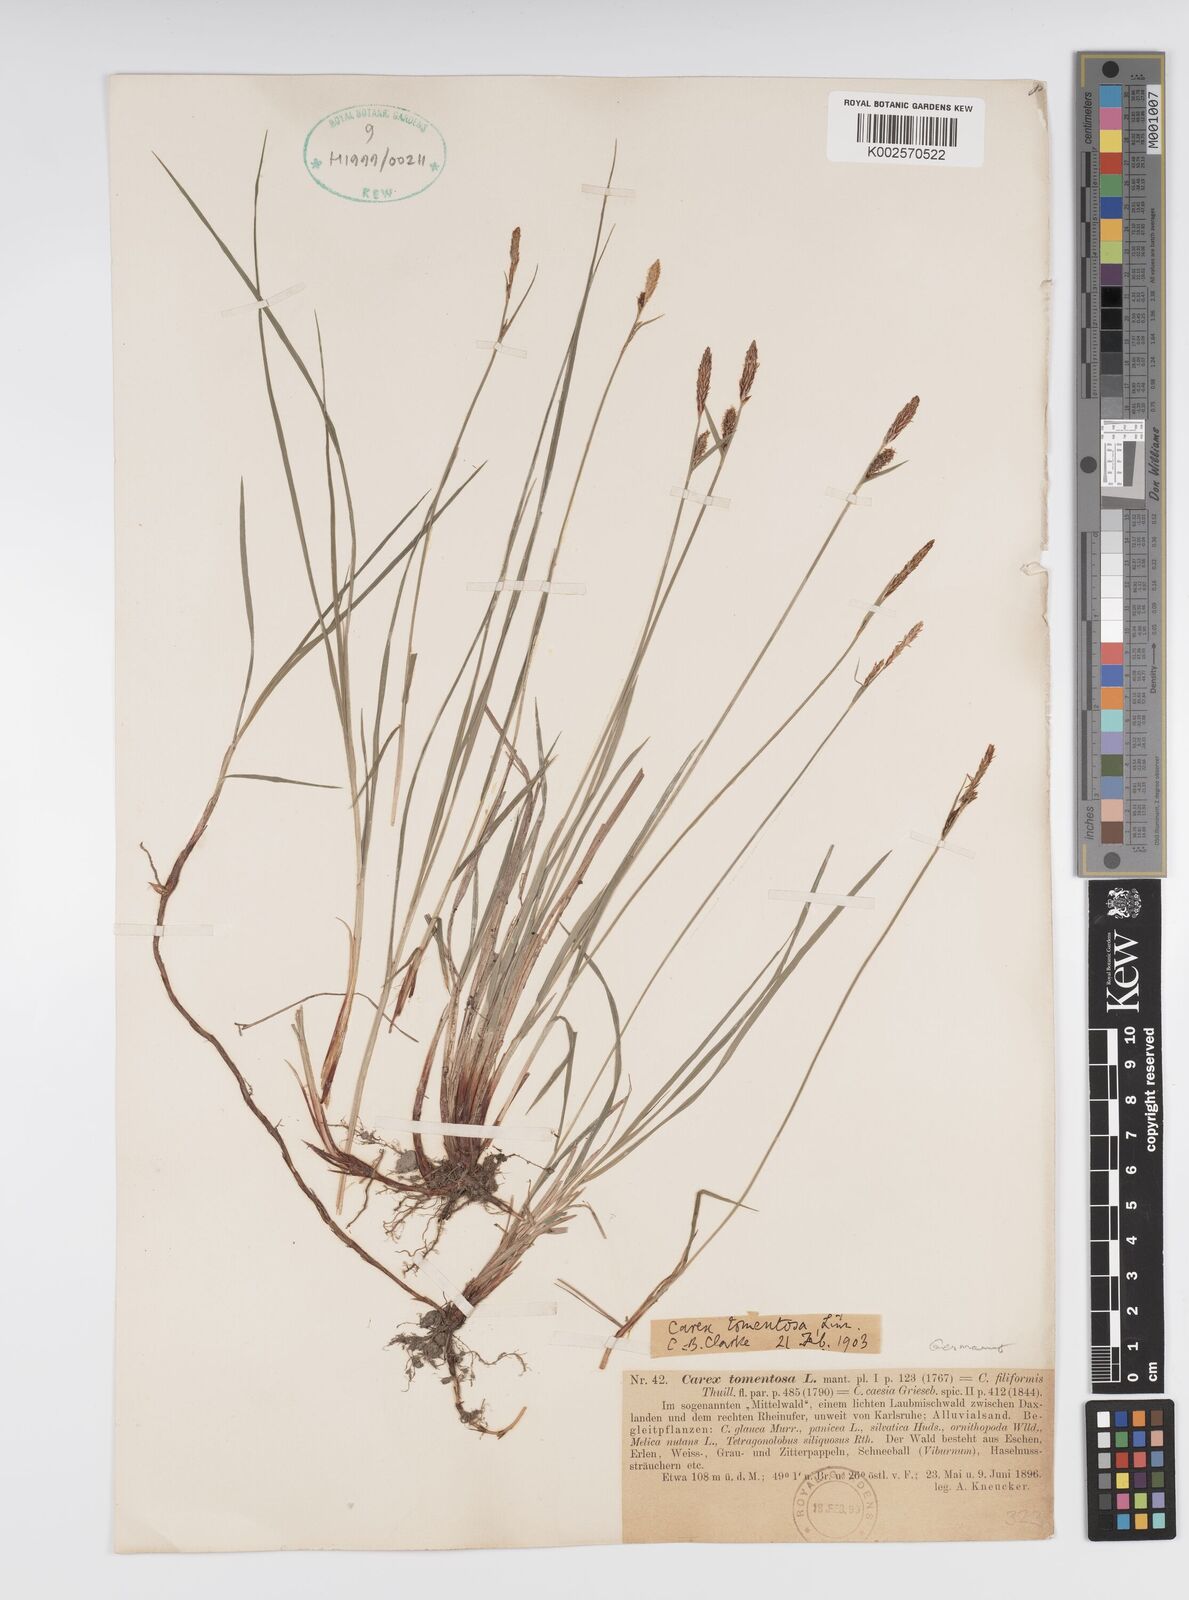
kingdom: Plantae
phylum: Tracheophyta
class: Liliopsida
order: Poales
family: Cyperaceae
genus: Carex
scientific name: Carex montana
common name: Soft-leaved sedge
